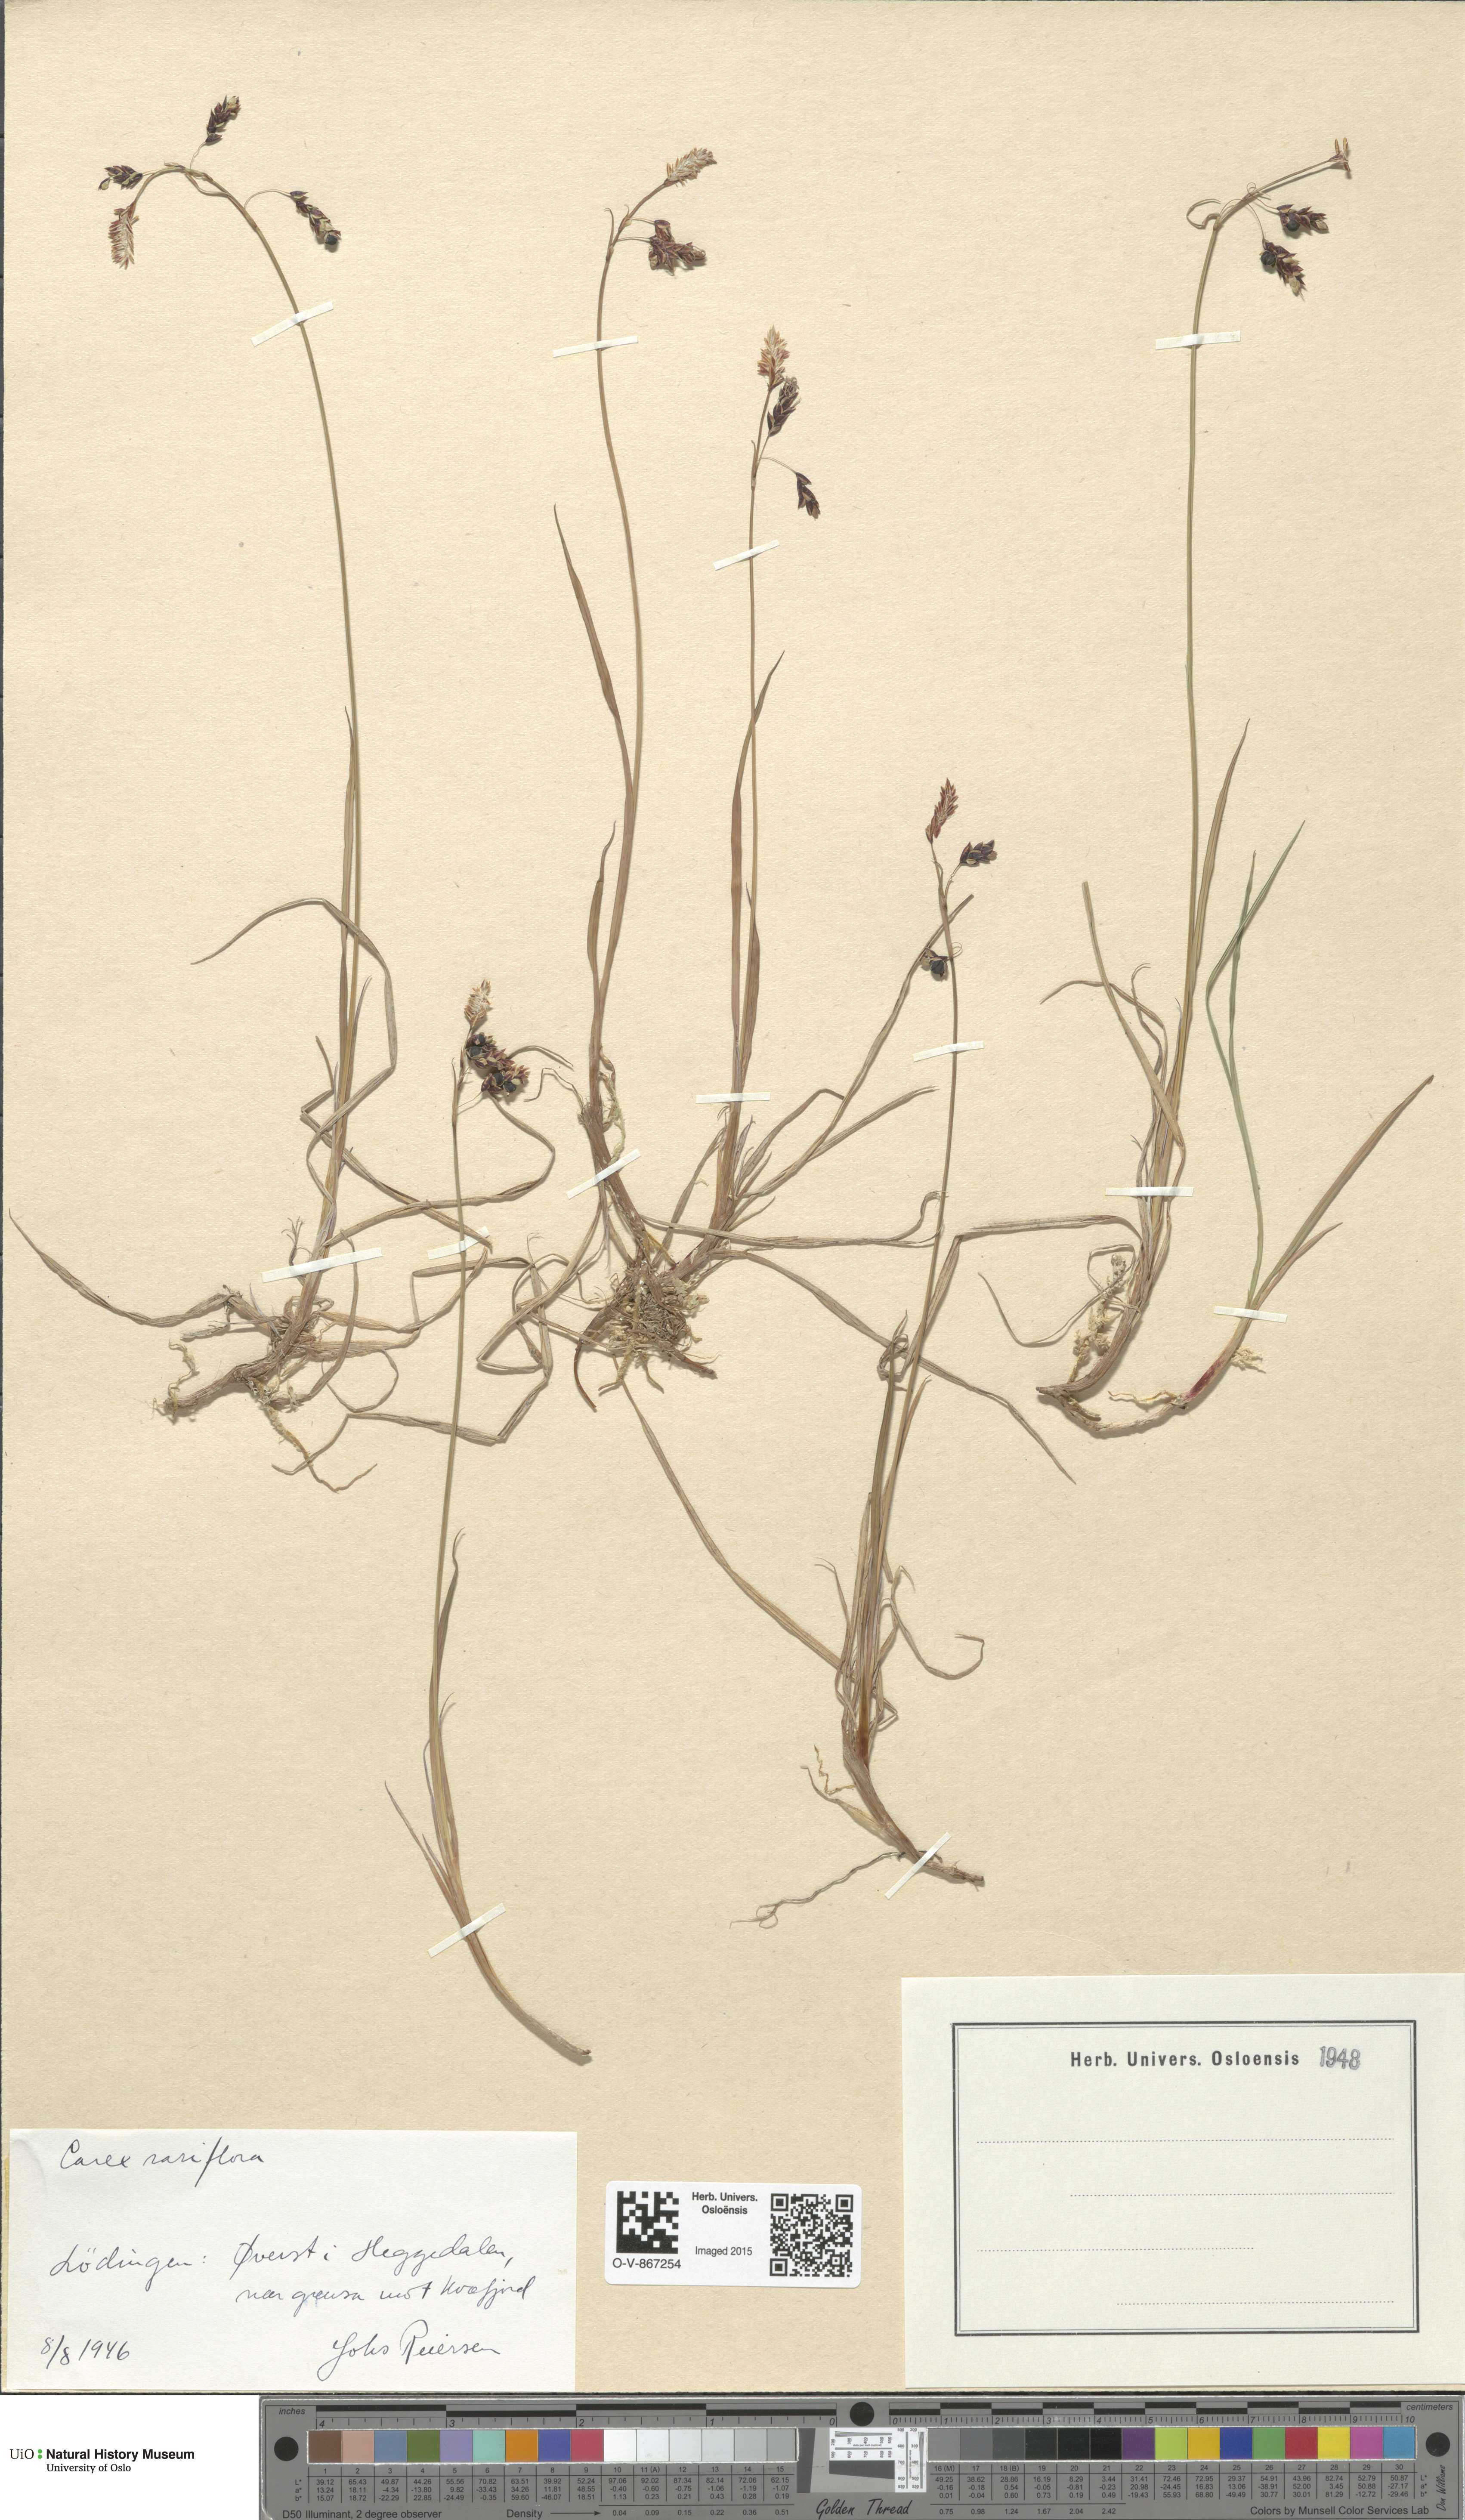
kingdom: Plantae
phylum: Tracheophyta
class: Liliopsida
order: Poales
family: Cyperaceae
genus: Carex
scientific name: Carex rariflora
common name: Loose-flowered alpine sedge
